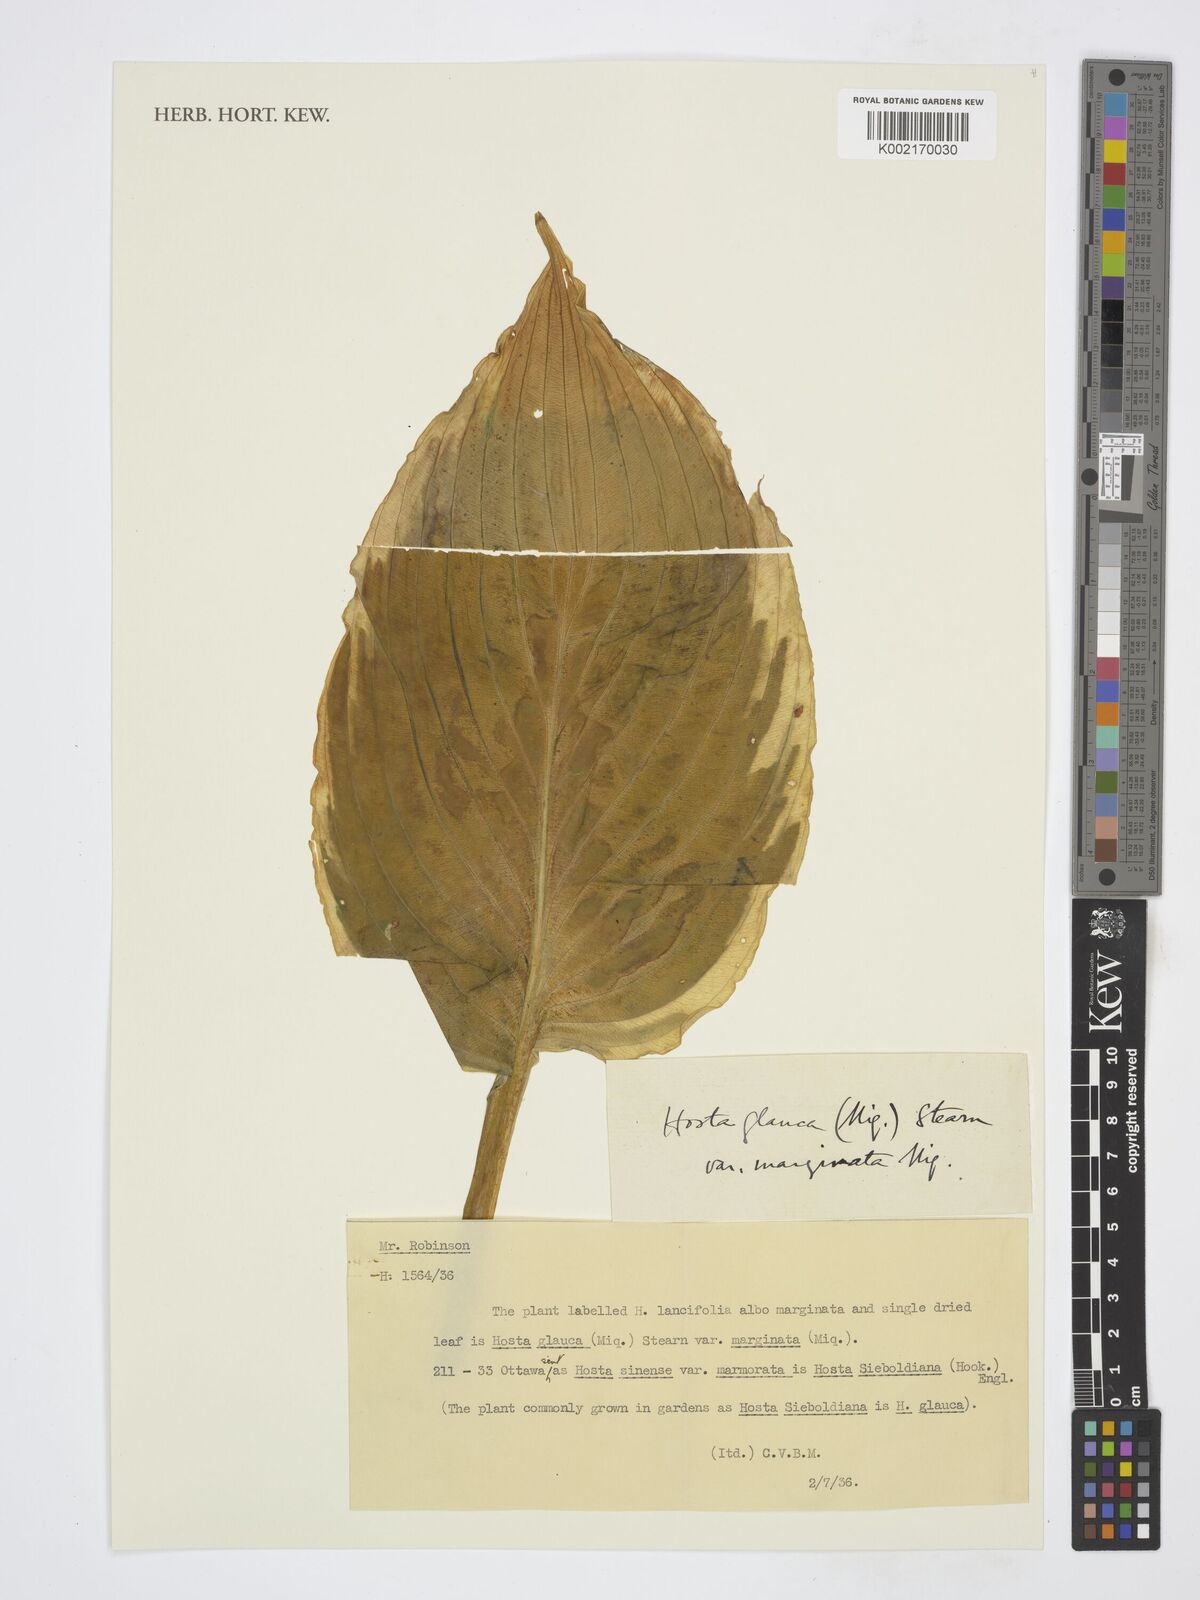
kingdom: Plantae
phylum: Tracheophyta
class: Liliopsida
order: Asparagales
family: Asparagaceae
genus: Hosta
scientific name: Hosta sieboldiana
